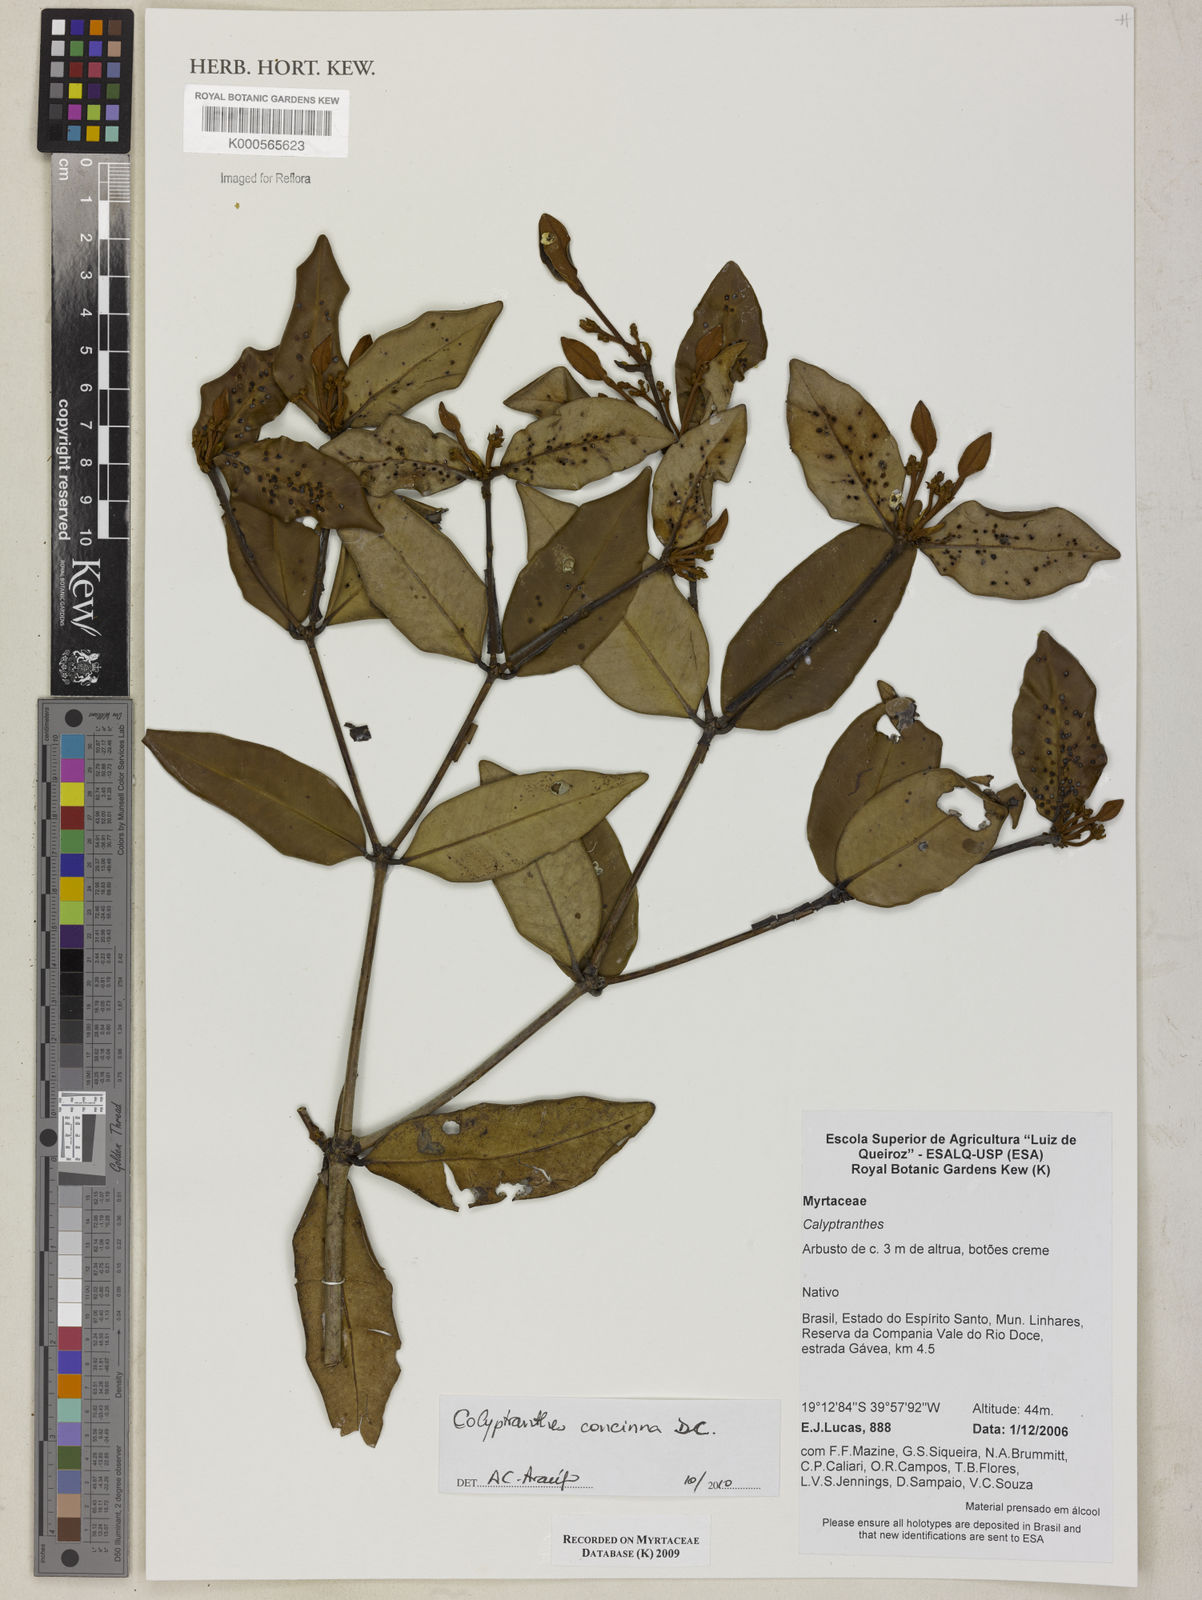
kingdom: Plantae
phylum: Tracheophyta
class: Magnoliopsida
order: Myrtales
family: Myrtaceae
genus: Calyptranthes
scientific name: Calyptranthes
